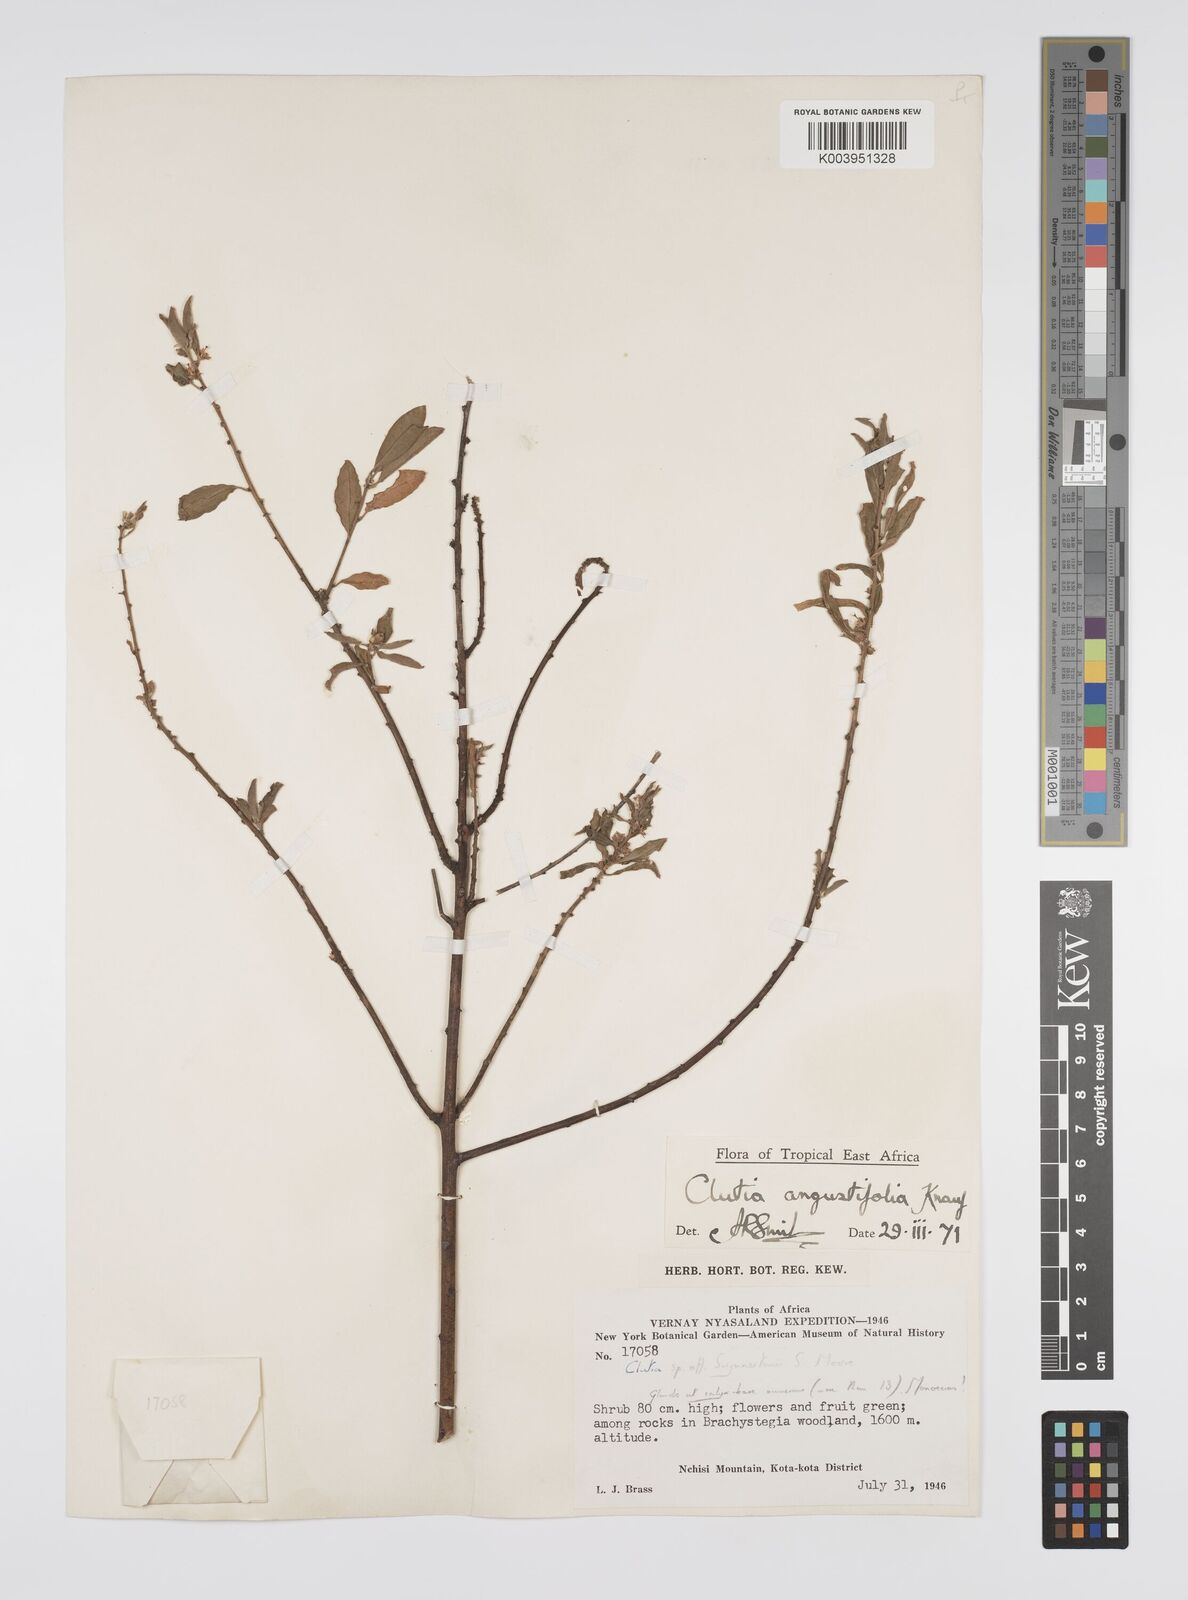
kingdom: Plantae
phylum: Tracheophyta
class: Magnoliopsida
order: Malpighiales
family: Peraceae
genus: Clutia
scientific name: Clutia angustifolia
